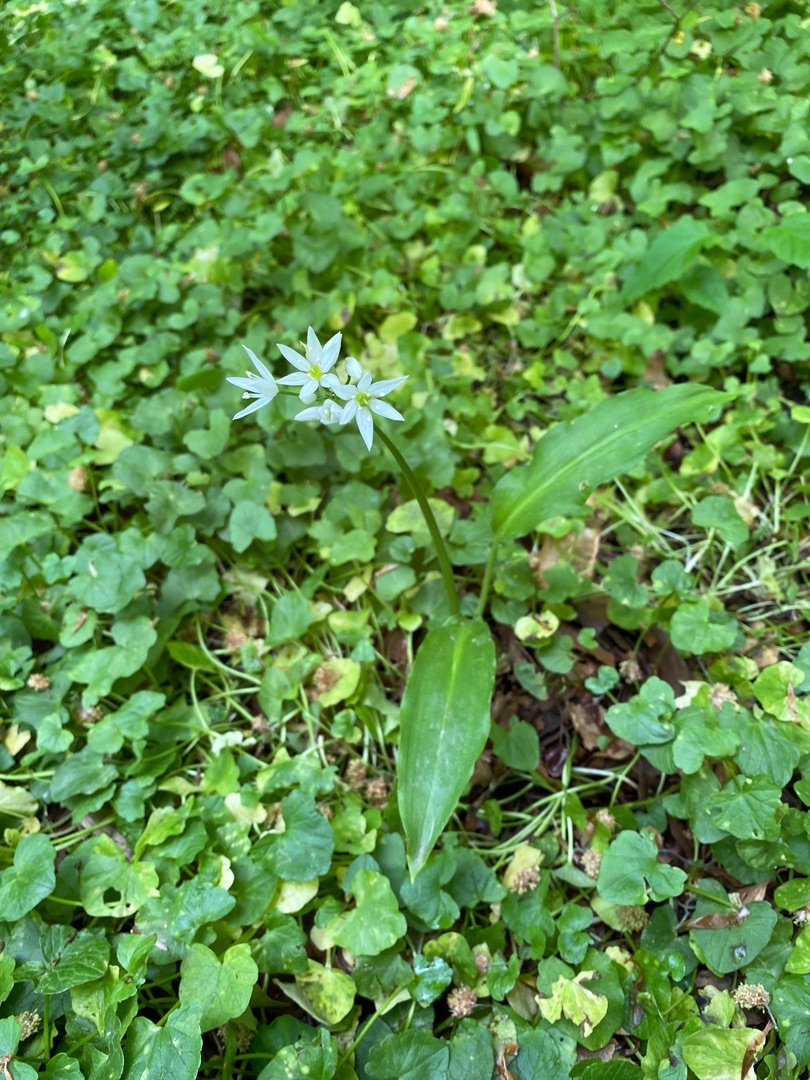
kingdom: Plantae
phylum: Tracheophyta
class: Liliopsida
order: Asparagales
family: Amaryllidaceae
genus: Allium
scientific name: Allium ursinum
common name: Rams-løg
